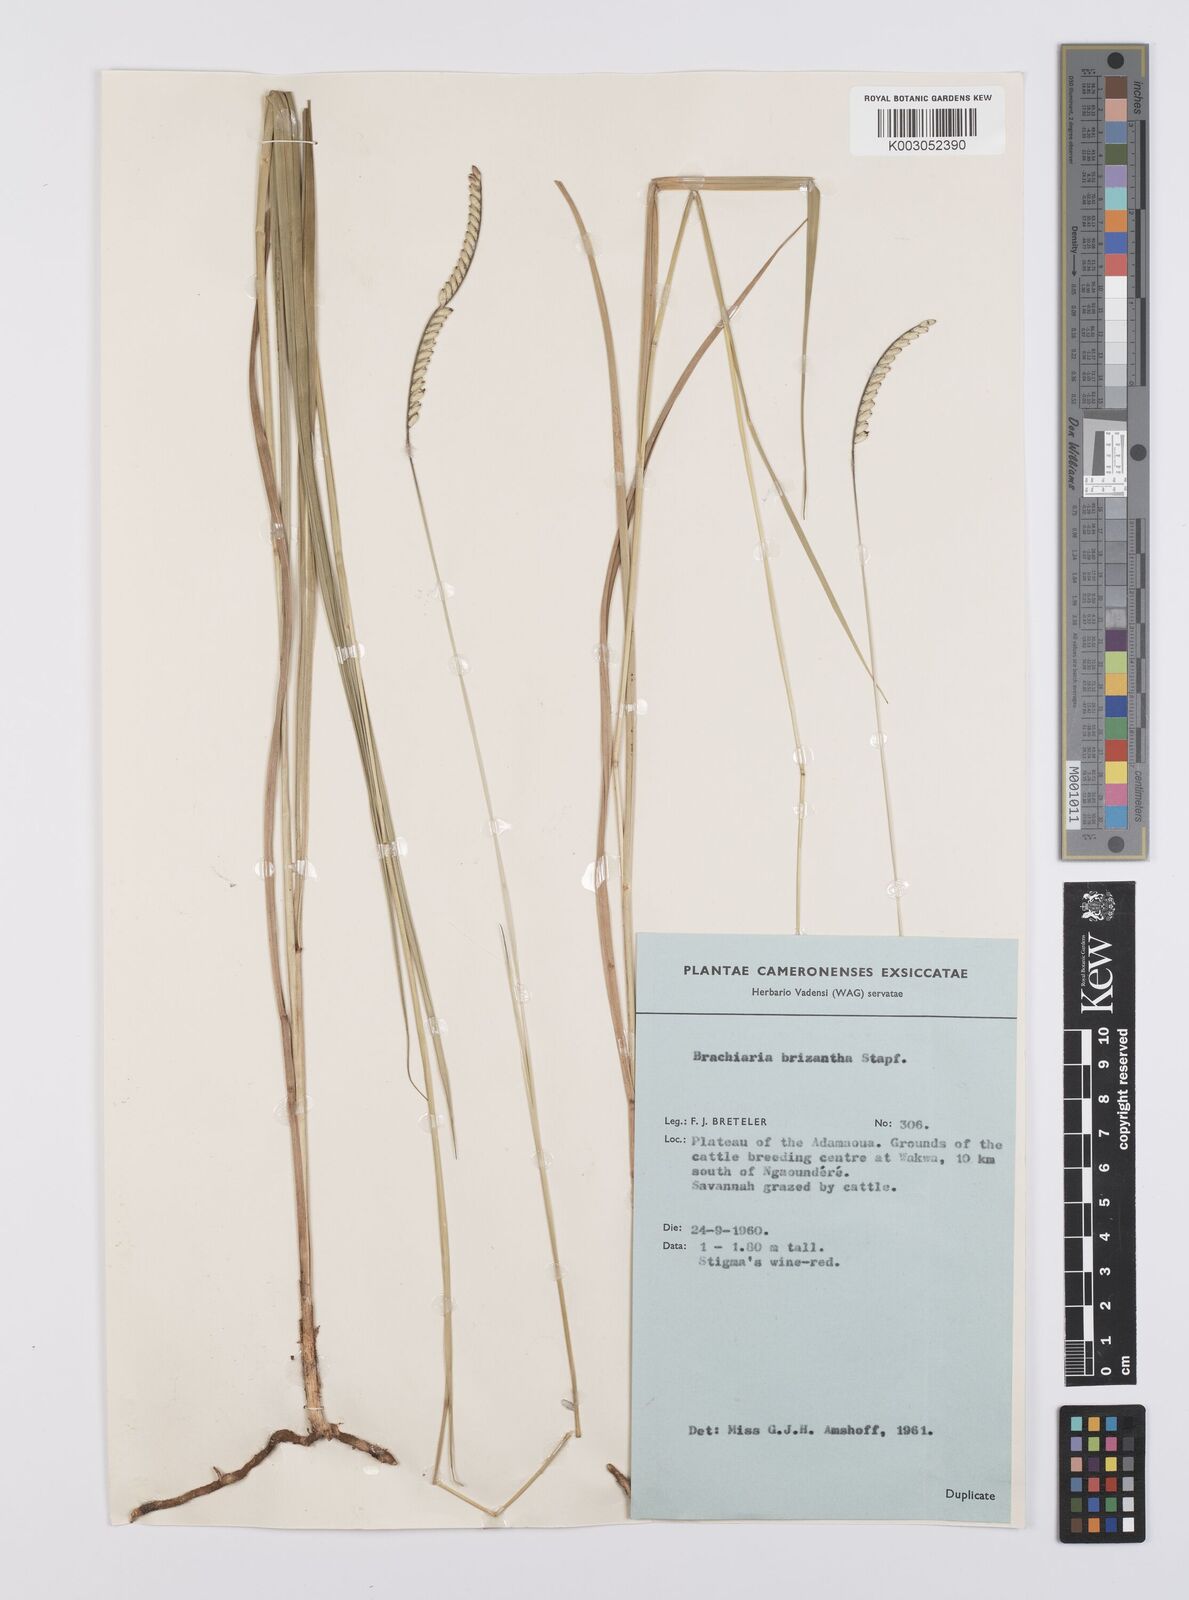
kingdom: Plantae
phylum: Tracheophyta
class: Liliopsida
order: Poales
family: Poaceae
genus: Urochloa
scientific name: Urochloa brizantha
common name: Palisade signalgrass
